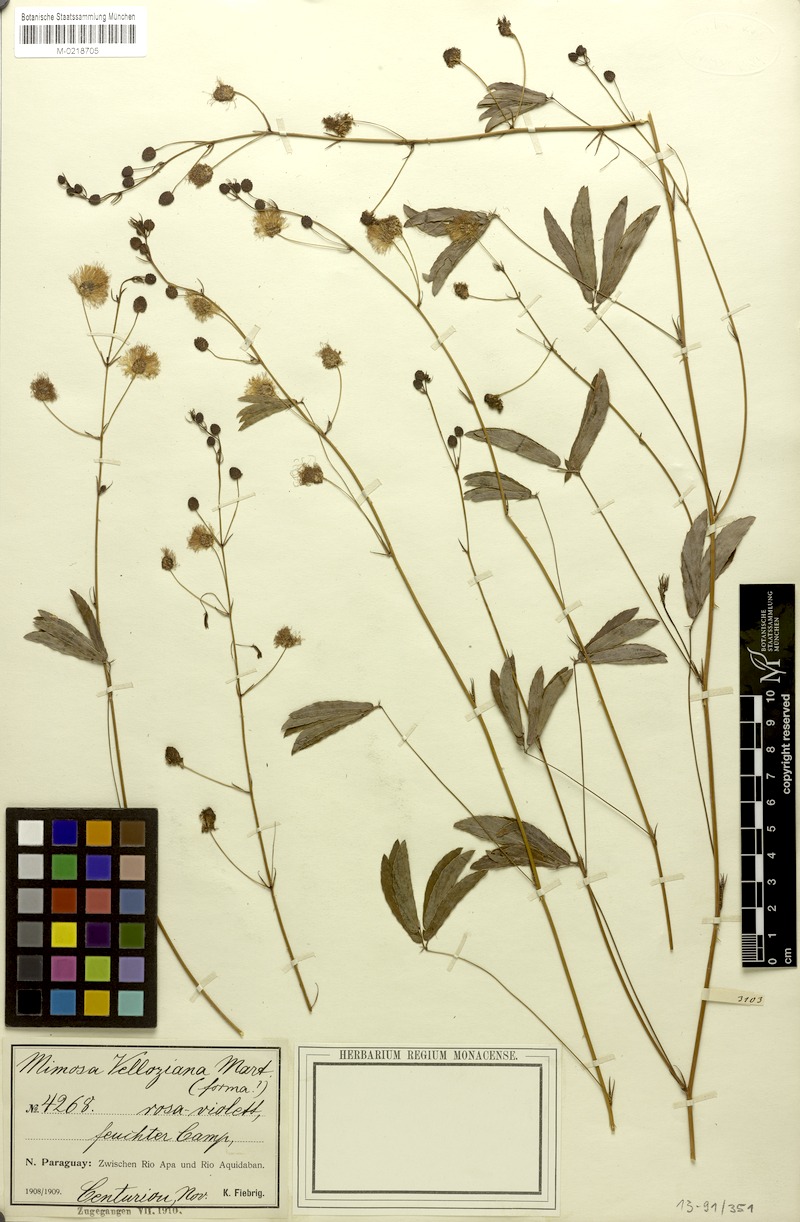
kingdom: Plantae
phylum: Tracheophyta
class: Magnoliopsida
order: Fabales
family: Fabaceae
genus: Mimosa
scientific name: Mimosa debilis
